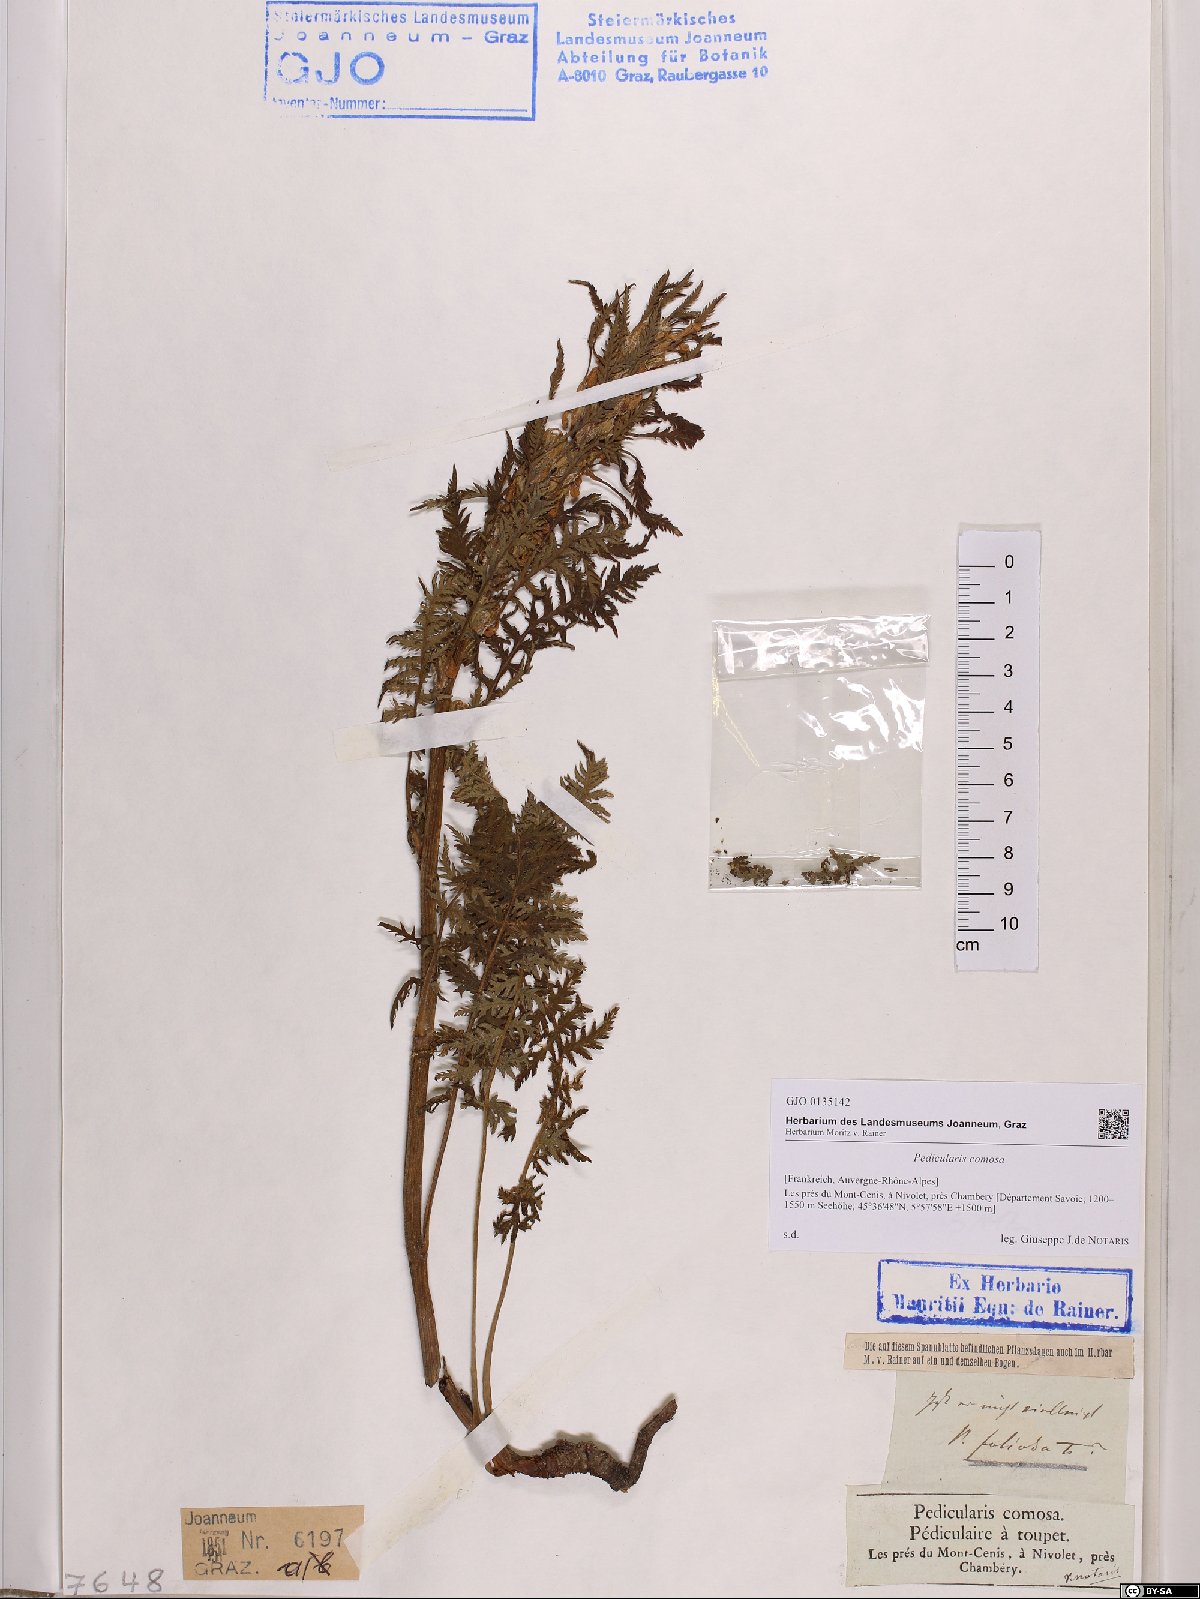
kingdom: Plantae
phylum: Tracheophyta
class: Magnoliopsida
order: Lamiales
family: Orobanchaceae
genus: Pedicularis
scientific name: Pedicularis comosa
